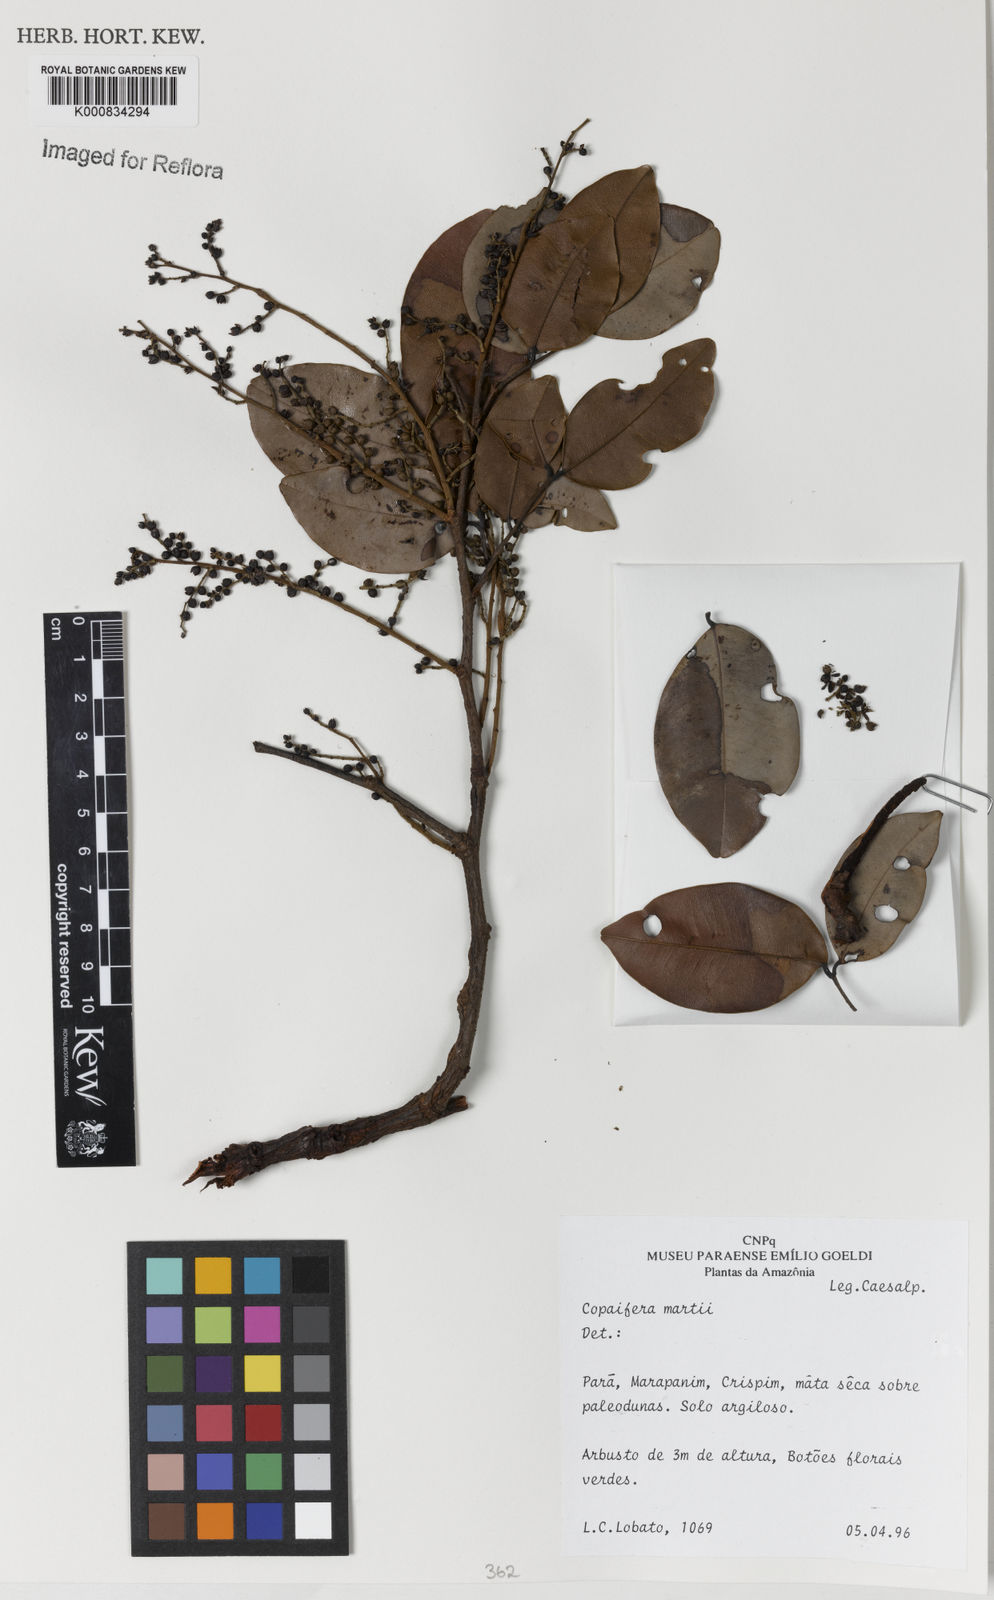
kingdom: Plantae
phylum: Tracheophyta
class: Magnoliopsida
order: Fabales
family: Fabaceae
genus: Copaifera
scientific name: Copaifera martii
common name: Copaiba
